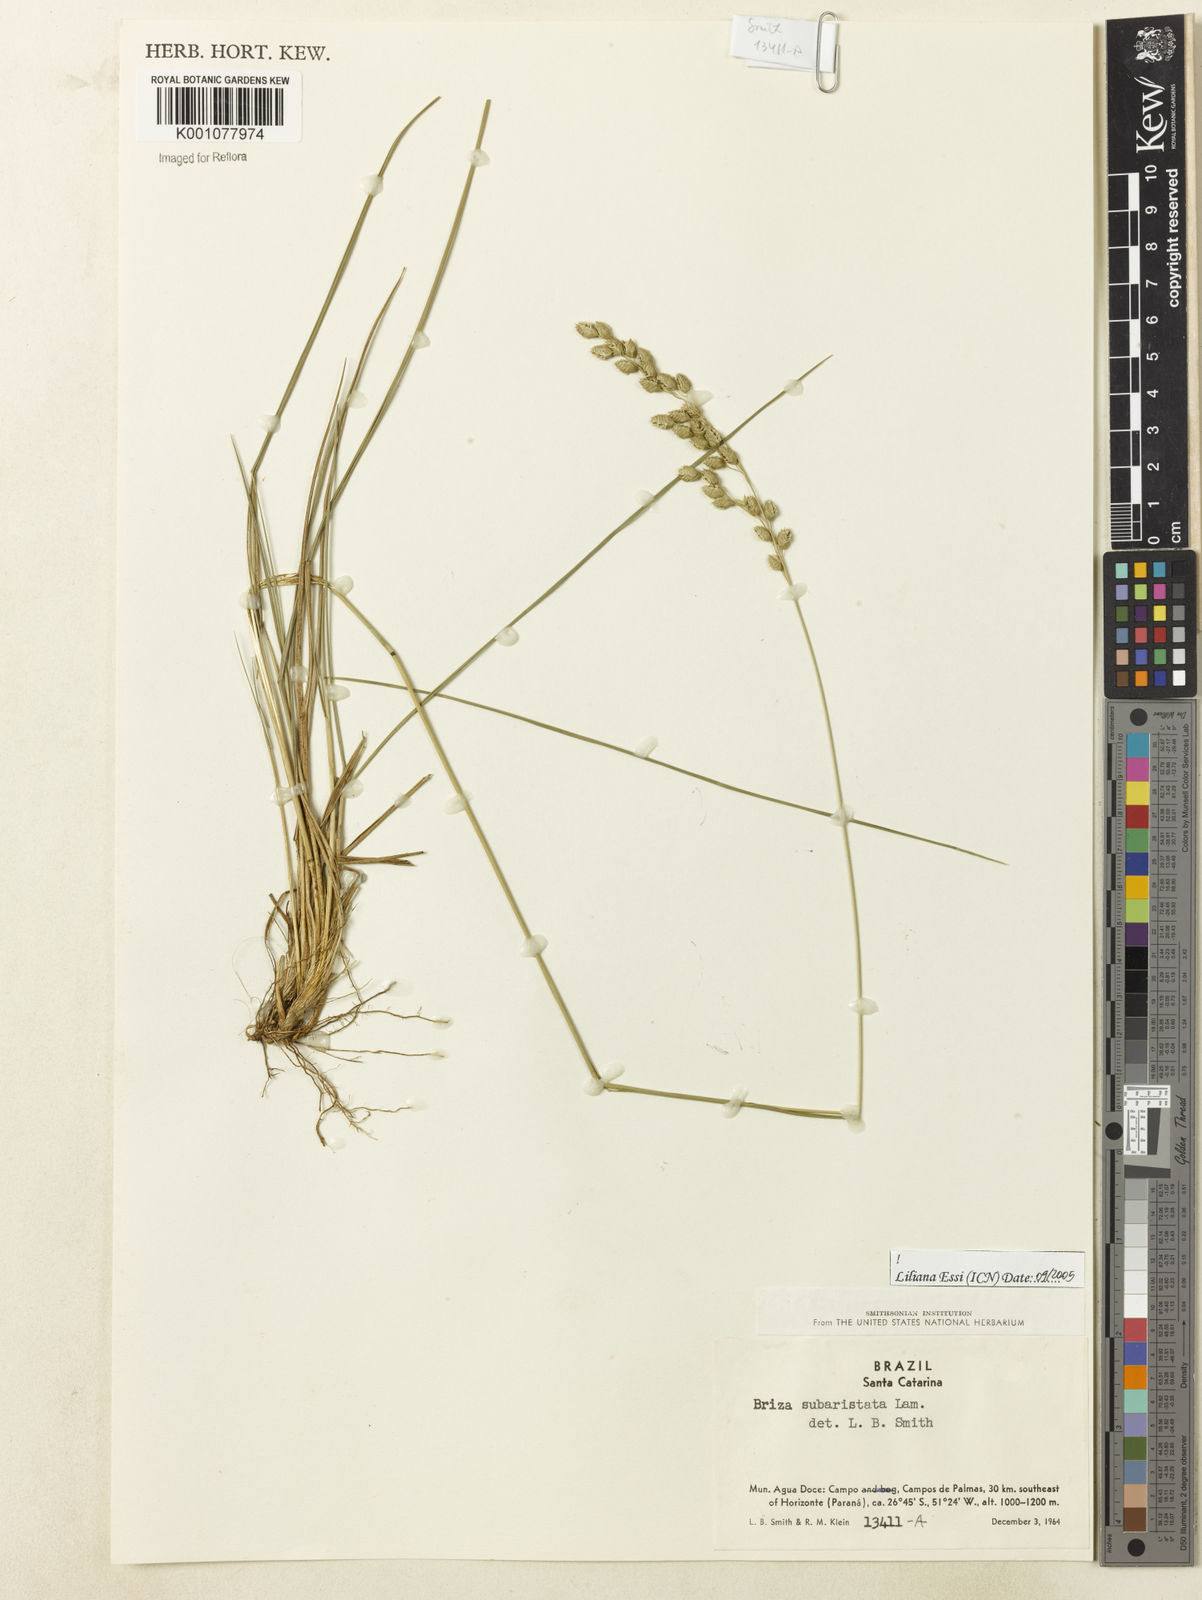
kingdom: Plantae
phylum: Tracheophyta
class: Liliopsida
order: Poales
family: Poaceae
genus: Briza
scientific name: Briza
